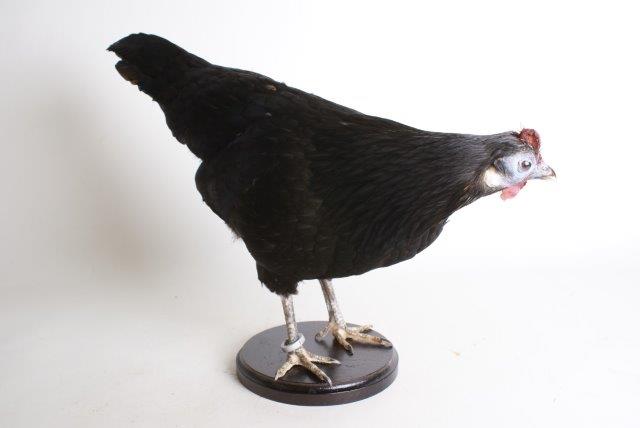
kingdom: Animalia
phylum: Chordata
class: Aves
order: Galliformes
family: Phasianidae
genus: Gallus
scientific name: Gallus gallus
